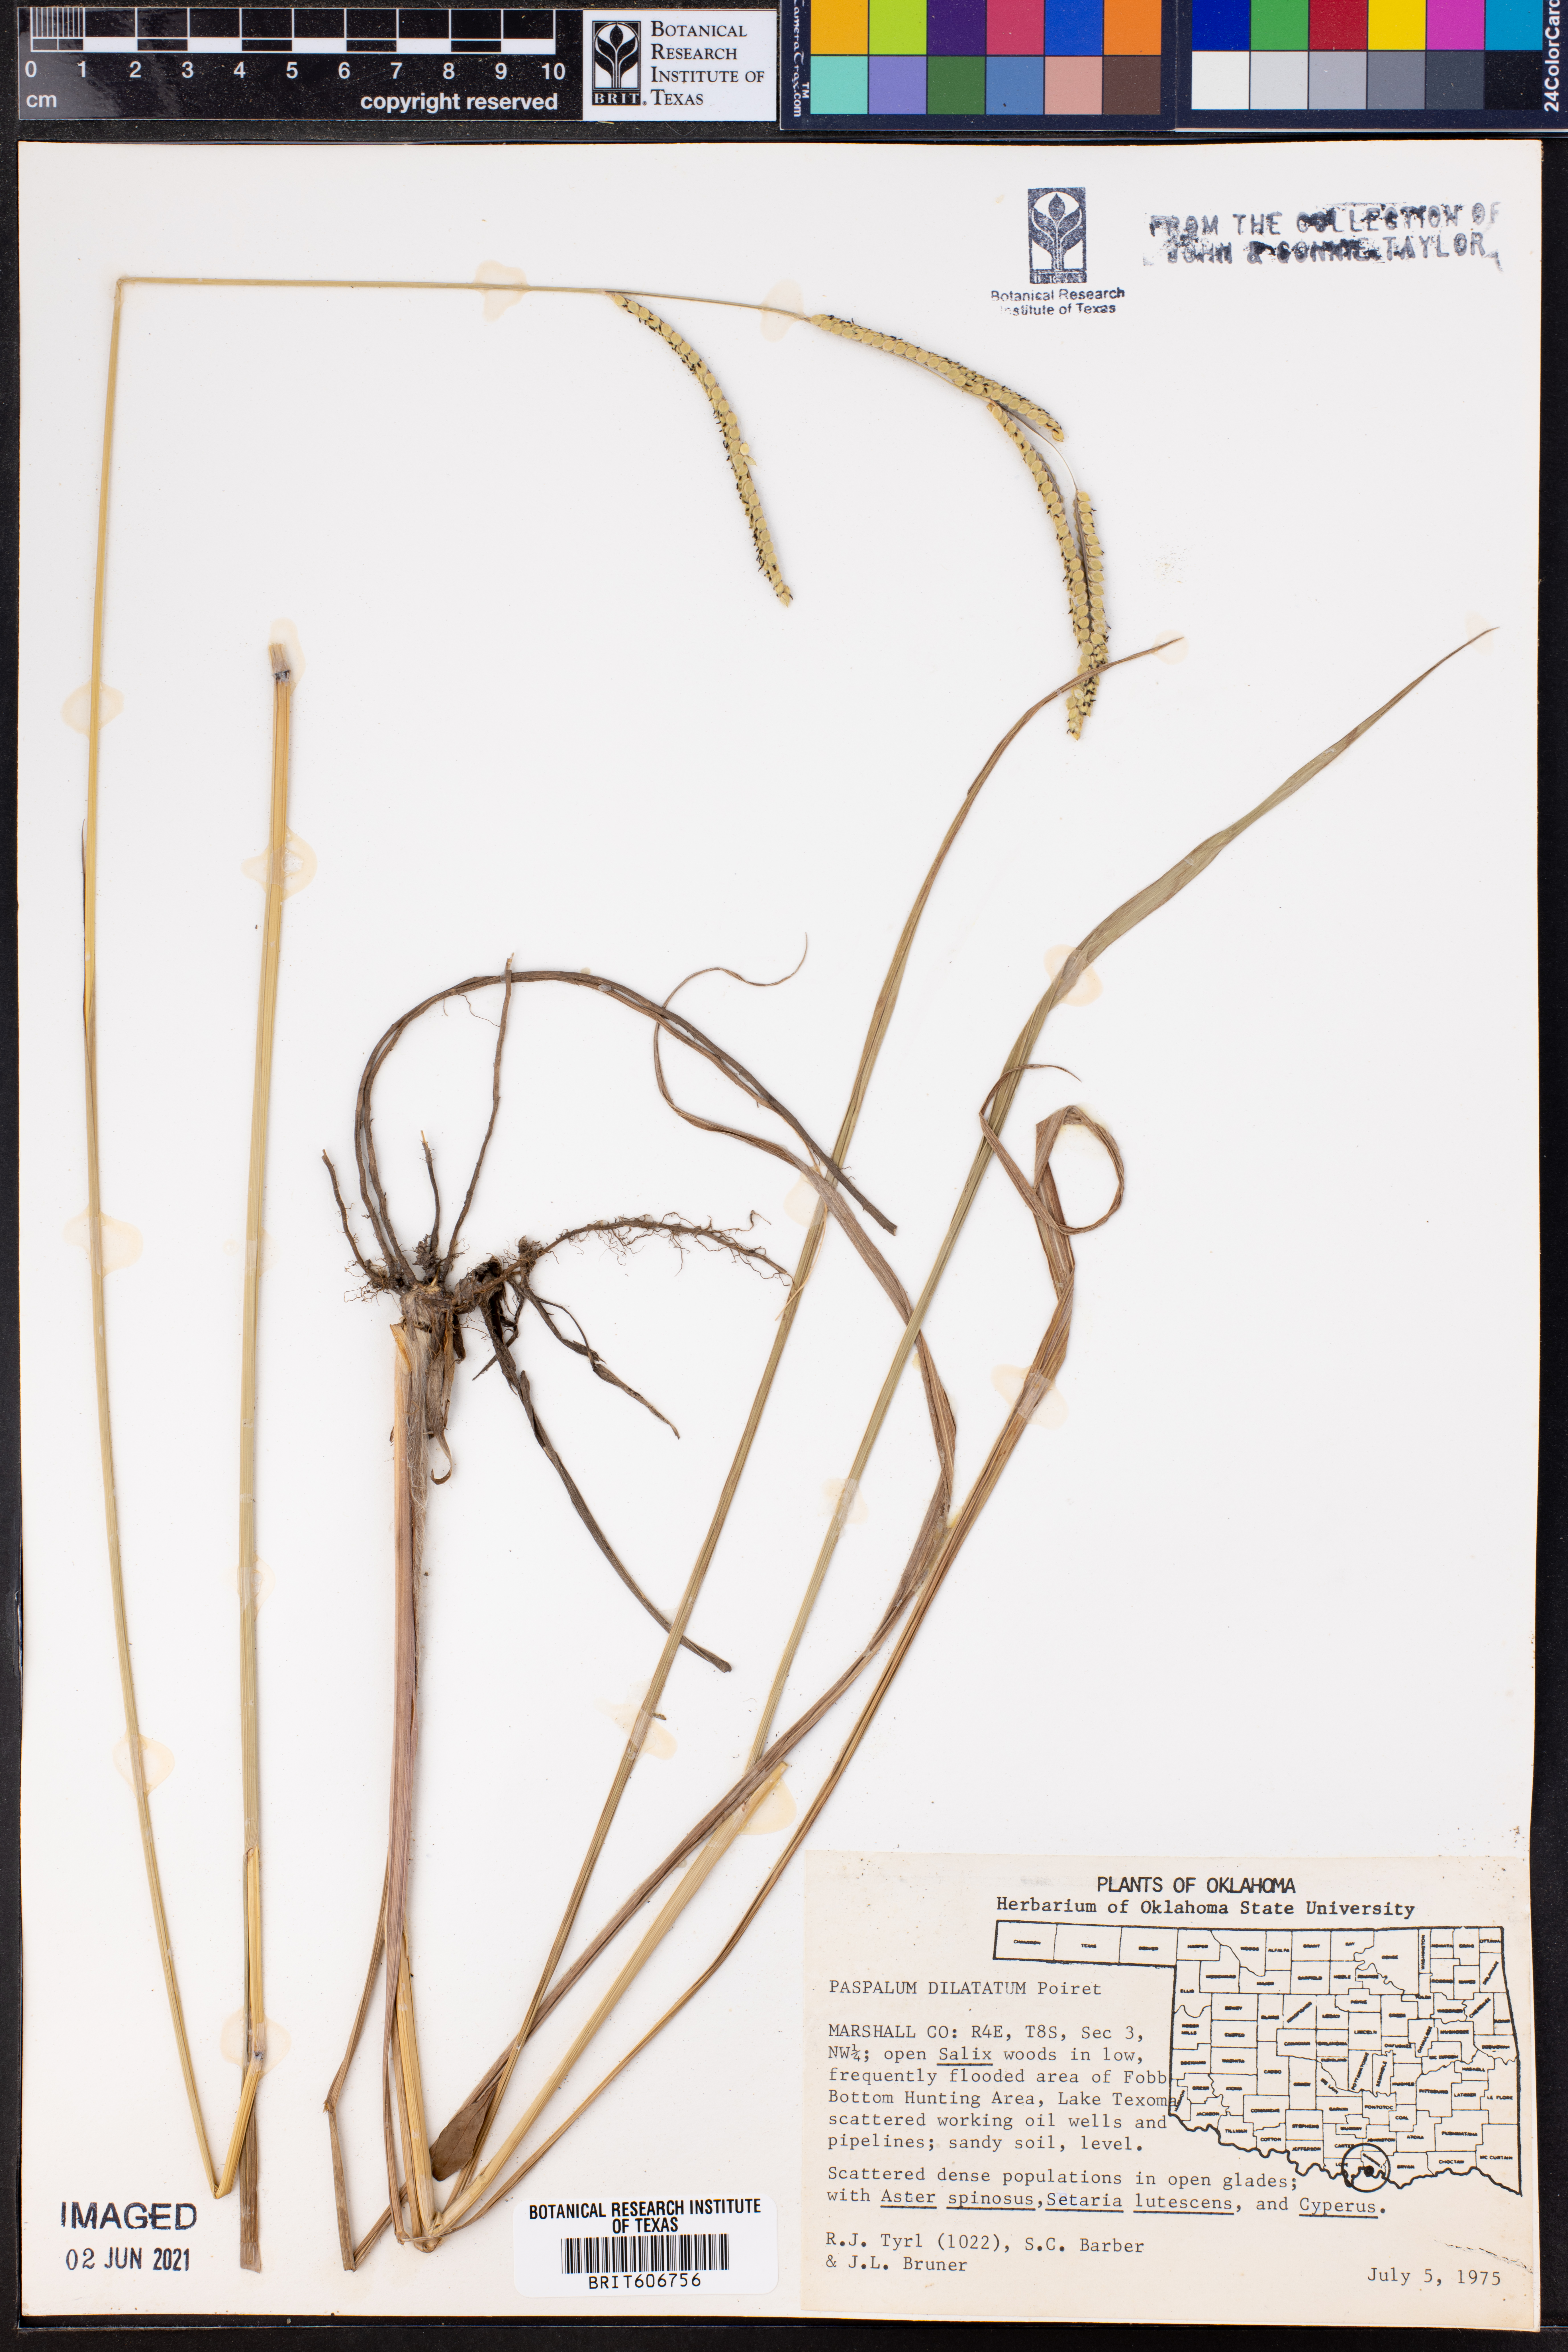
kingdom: Plantae
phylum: Tracheophyta
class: Liliopsida
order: Poales
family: Poaceae
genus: Paspalum
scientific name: Paspalum dilatatum
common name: Dallisgrass
